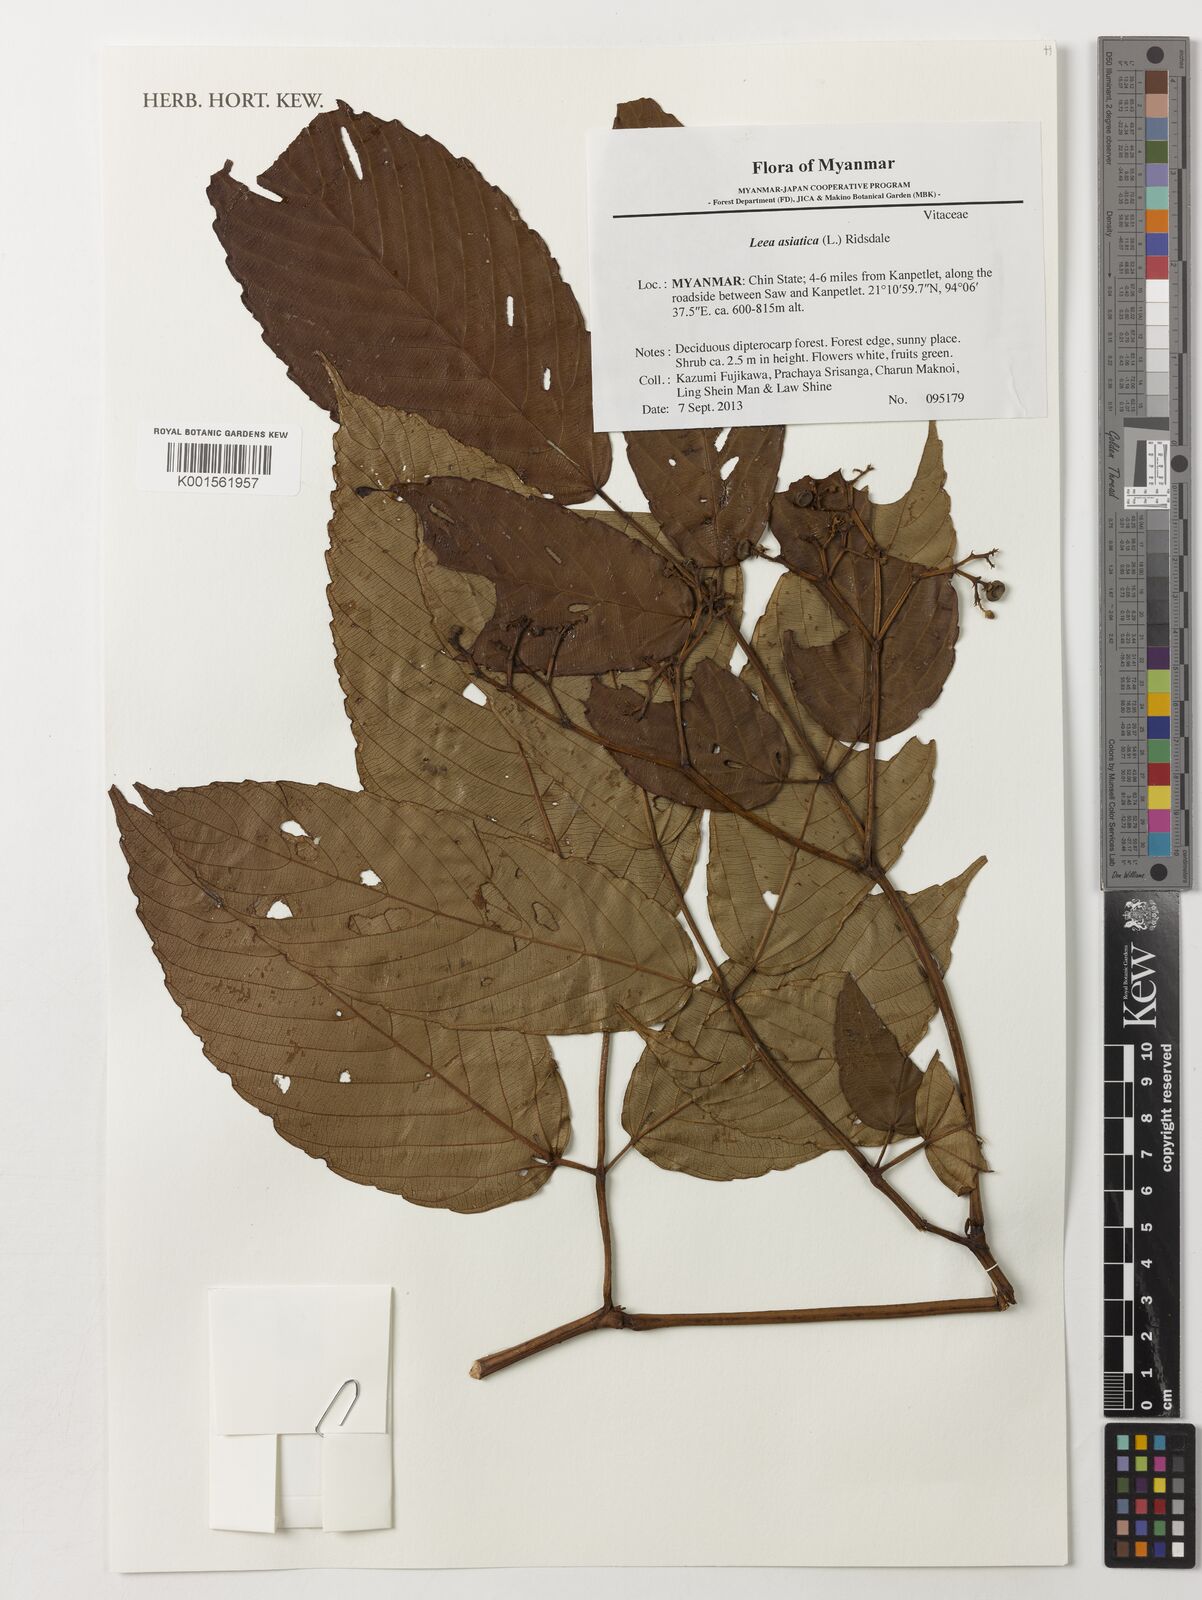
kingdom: Plantae
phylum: Tracheophyta
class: Magnoliopsida
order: Vitales
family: Vitaceae
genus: Leea
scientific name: Leea asiatica
